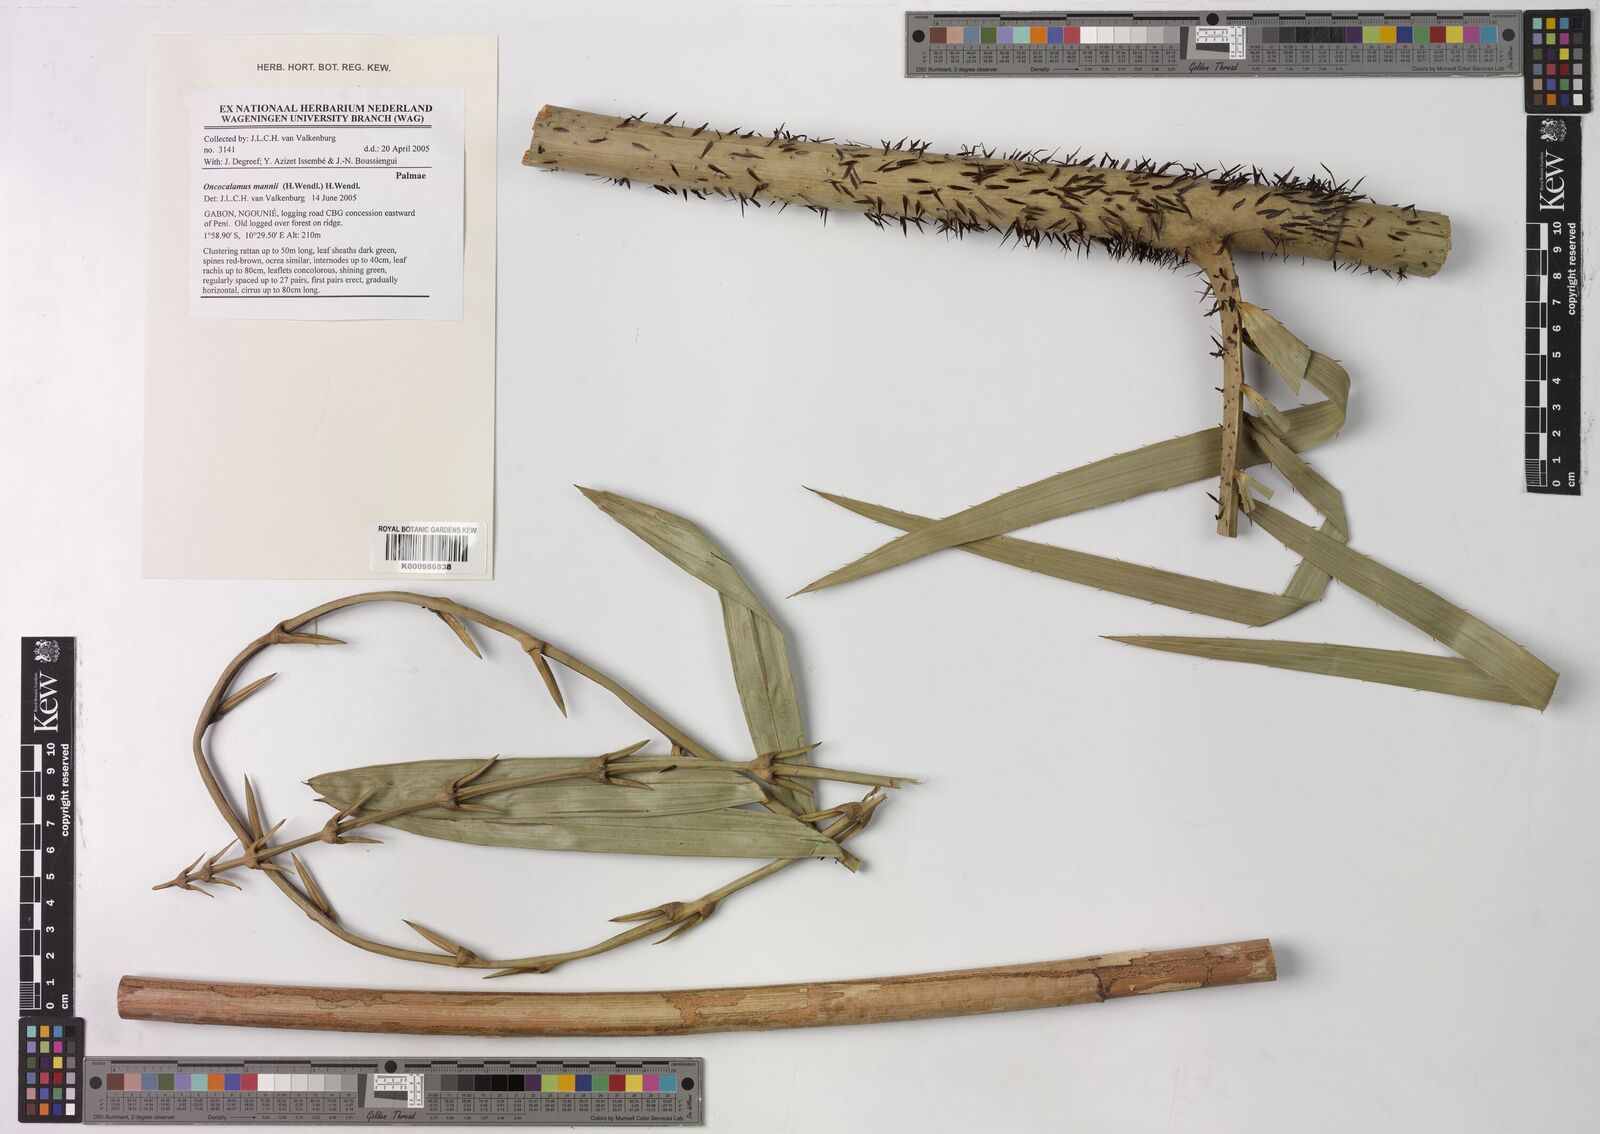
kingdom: Plantae
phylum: Tracheophyta
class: Liliopsida
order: Arecales
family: Arecaceae
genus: Oncocalamus
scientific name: Oncocalamus mannii
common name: Rattan
